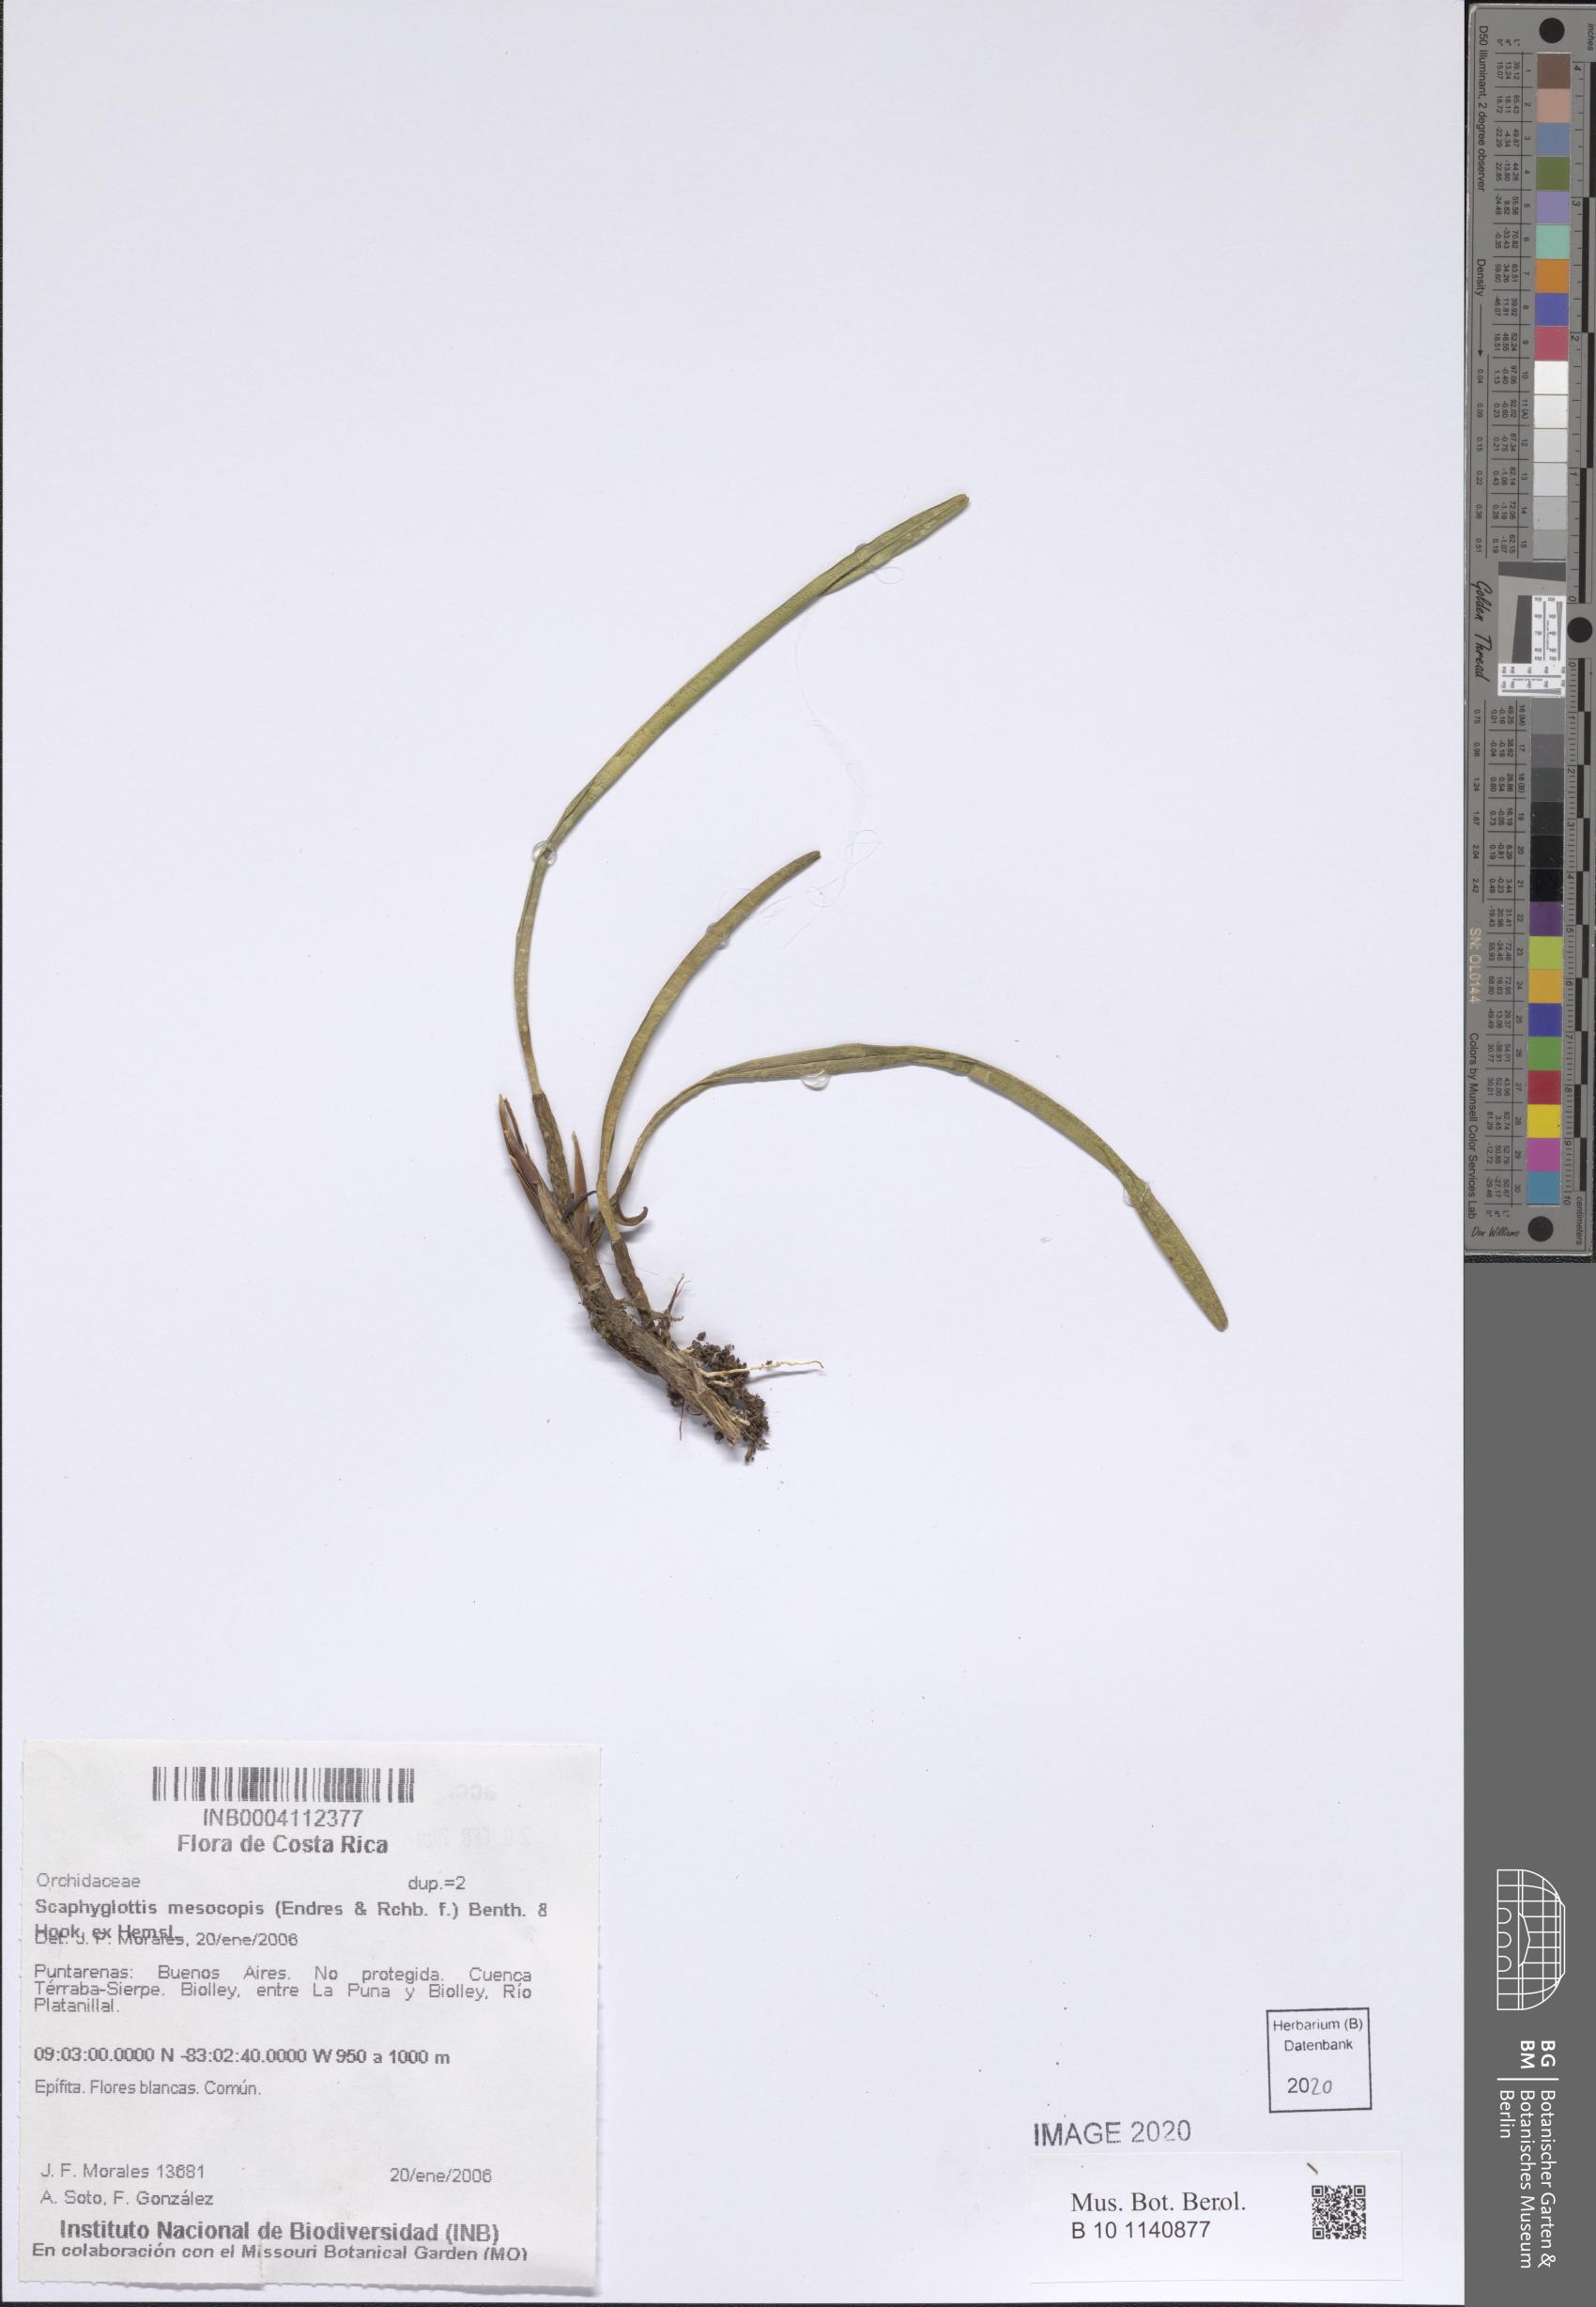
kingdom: Plantae
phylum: Tracheophyta
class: Liliopsida
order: Asparagales
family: Orchidaceae
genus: Scaphyglottis
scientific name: Scaphyglottis mesocopis
